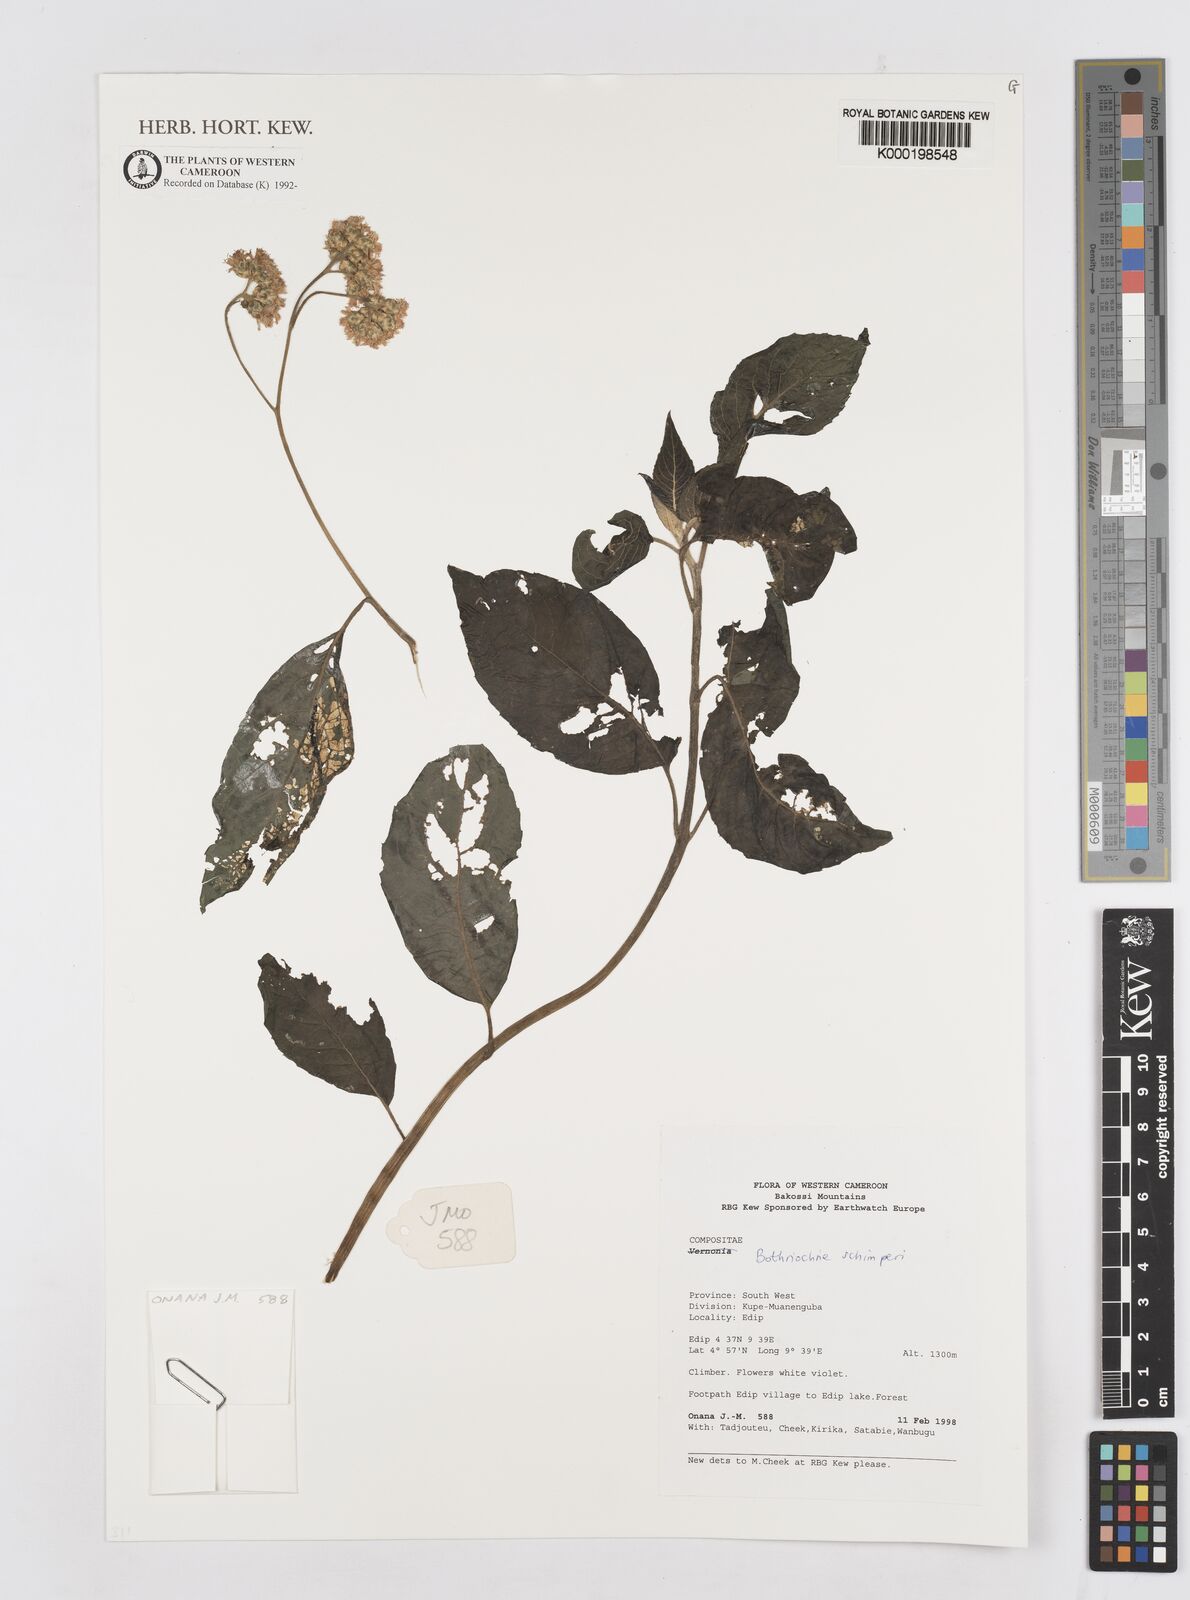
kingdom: Plantae
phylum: Tracheophyta
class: Magnoliopsida
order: Asterales
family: Asteraceae
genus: Bothriocline
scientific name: Bothriocline schimperi
